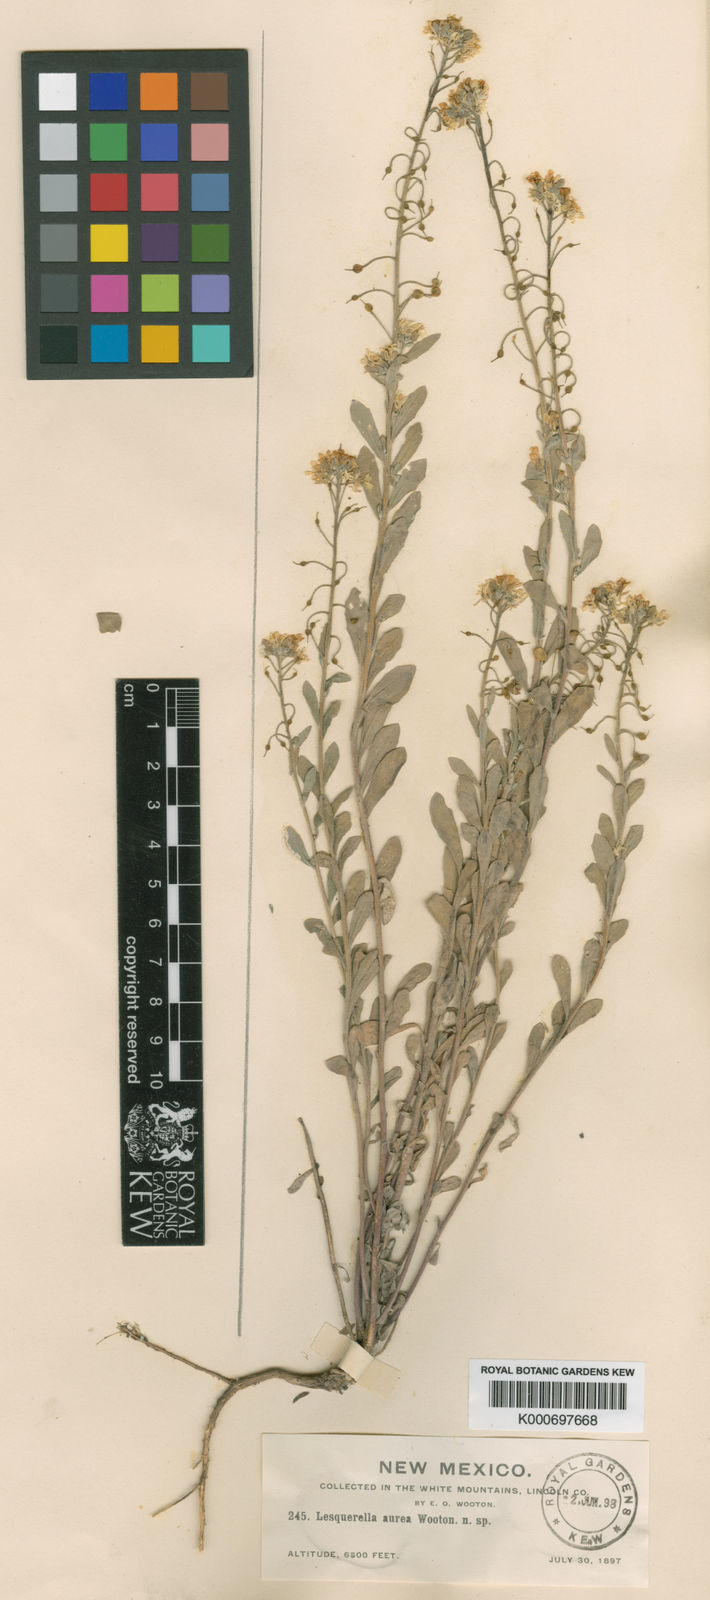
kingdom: Plantae
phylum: Tracheophyta
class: Magnoliopsida
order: Brassicales
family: Brassicaceae
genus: Physaria
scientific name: Physaria aurea
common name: Golden bladderpod
